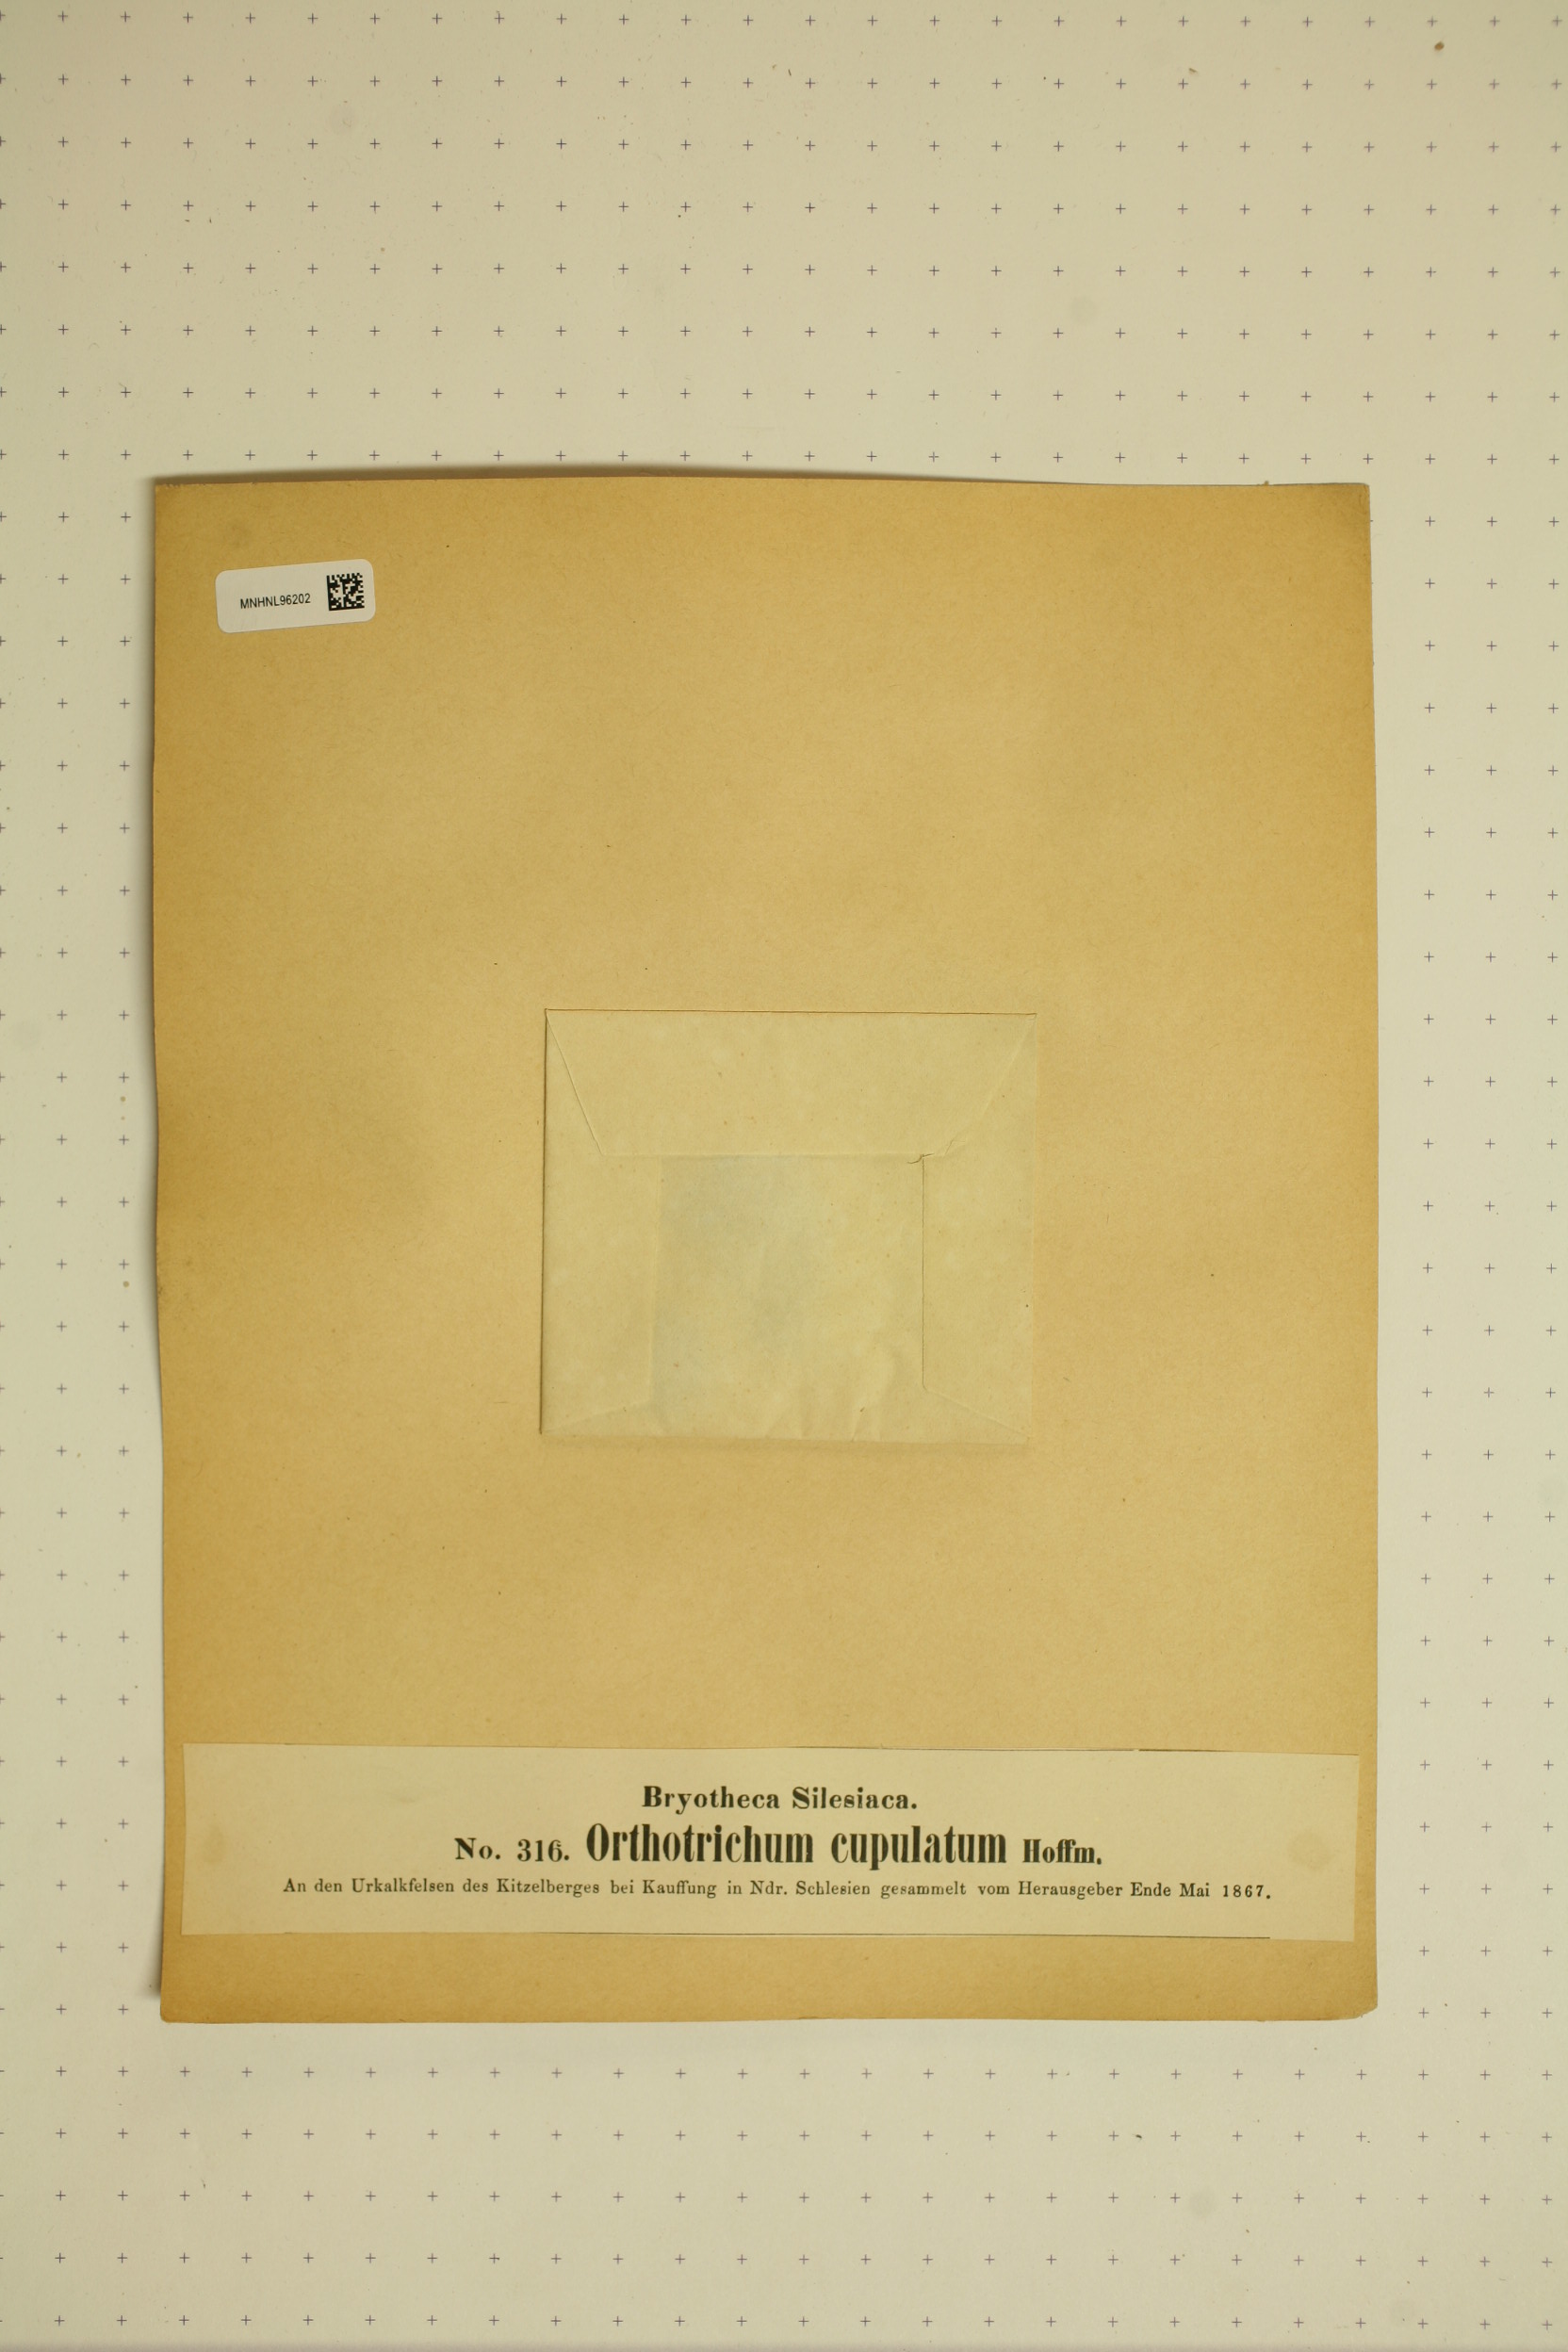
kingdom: Plantae
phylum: Bryophyta
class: Bryopsida
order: Orthotrichales
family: Orthotrichaceae
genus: Orthotrichum
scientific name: Orthotrichum cupulatum
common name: Hooded bristle-moss
